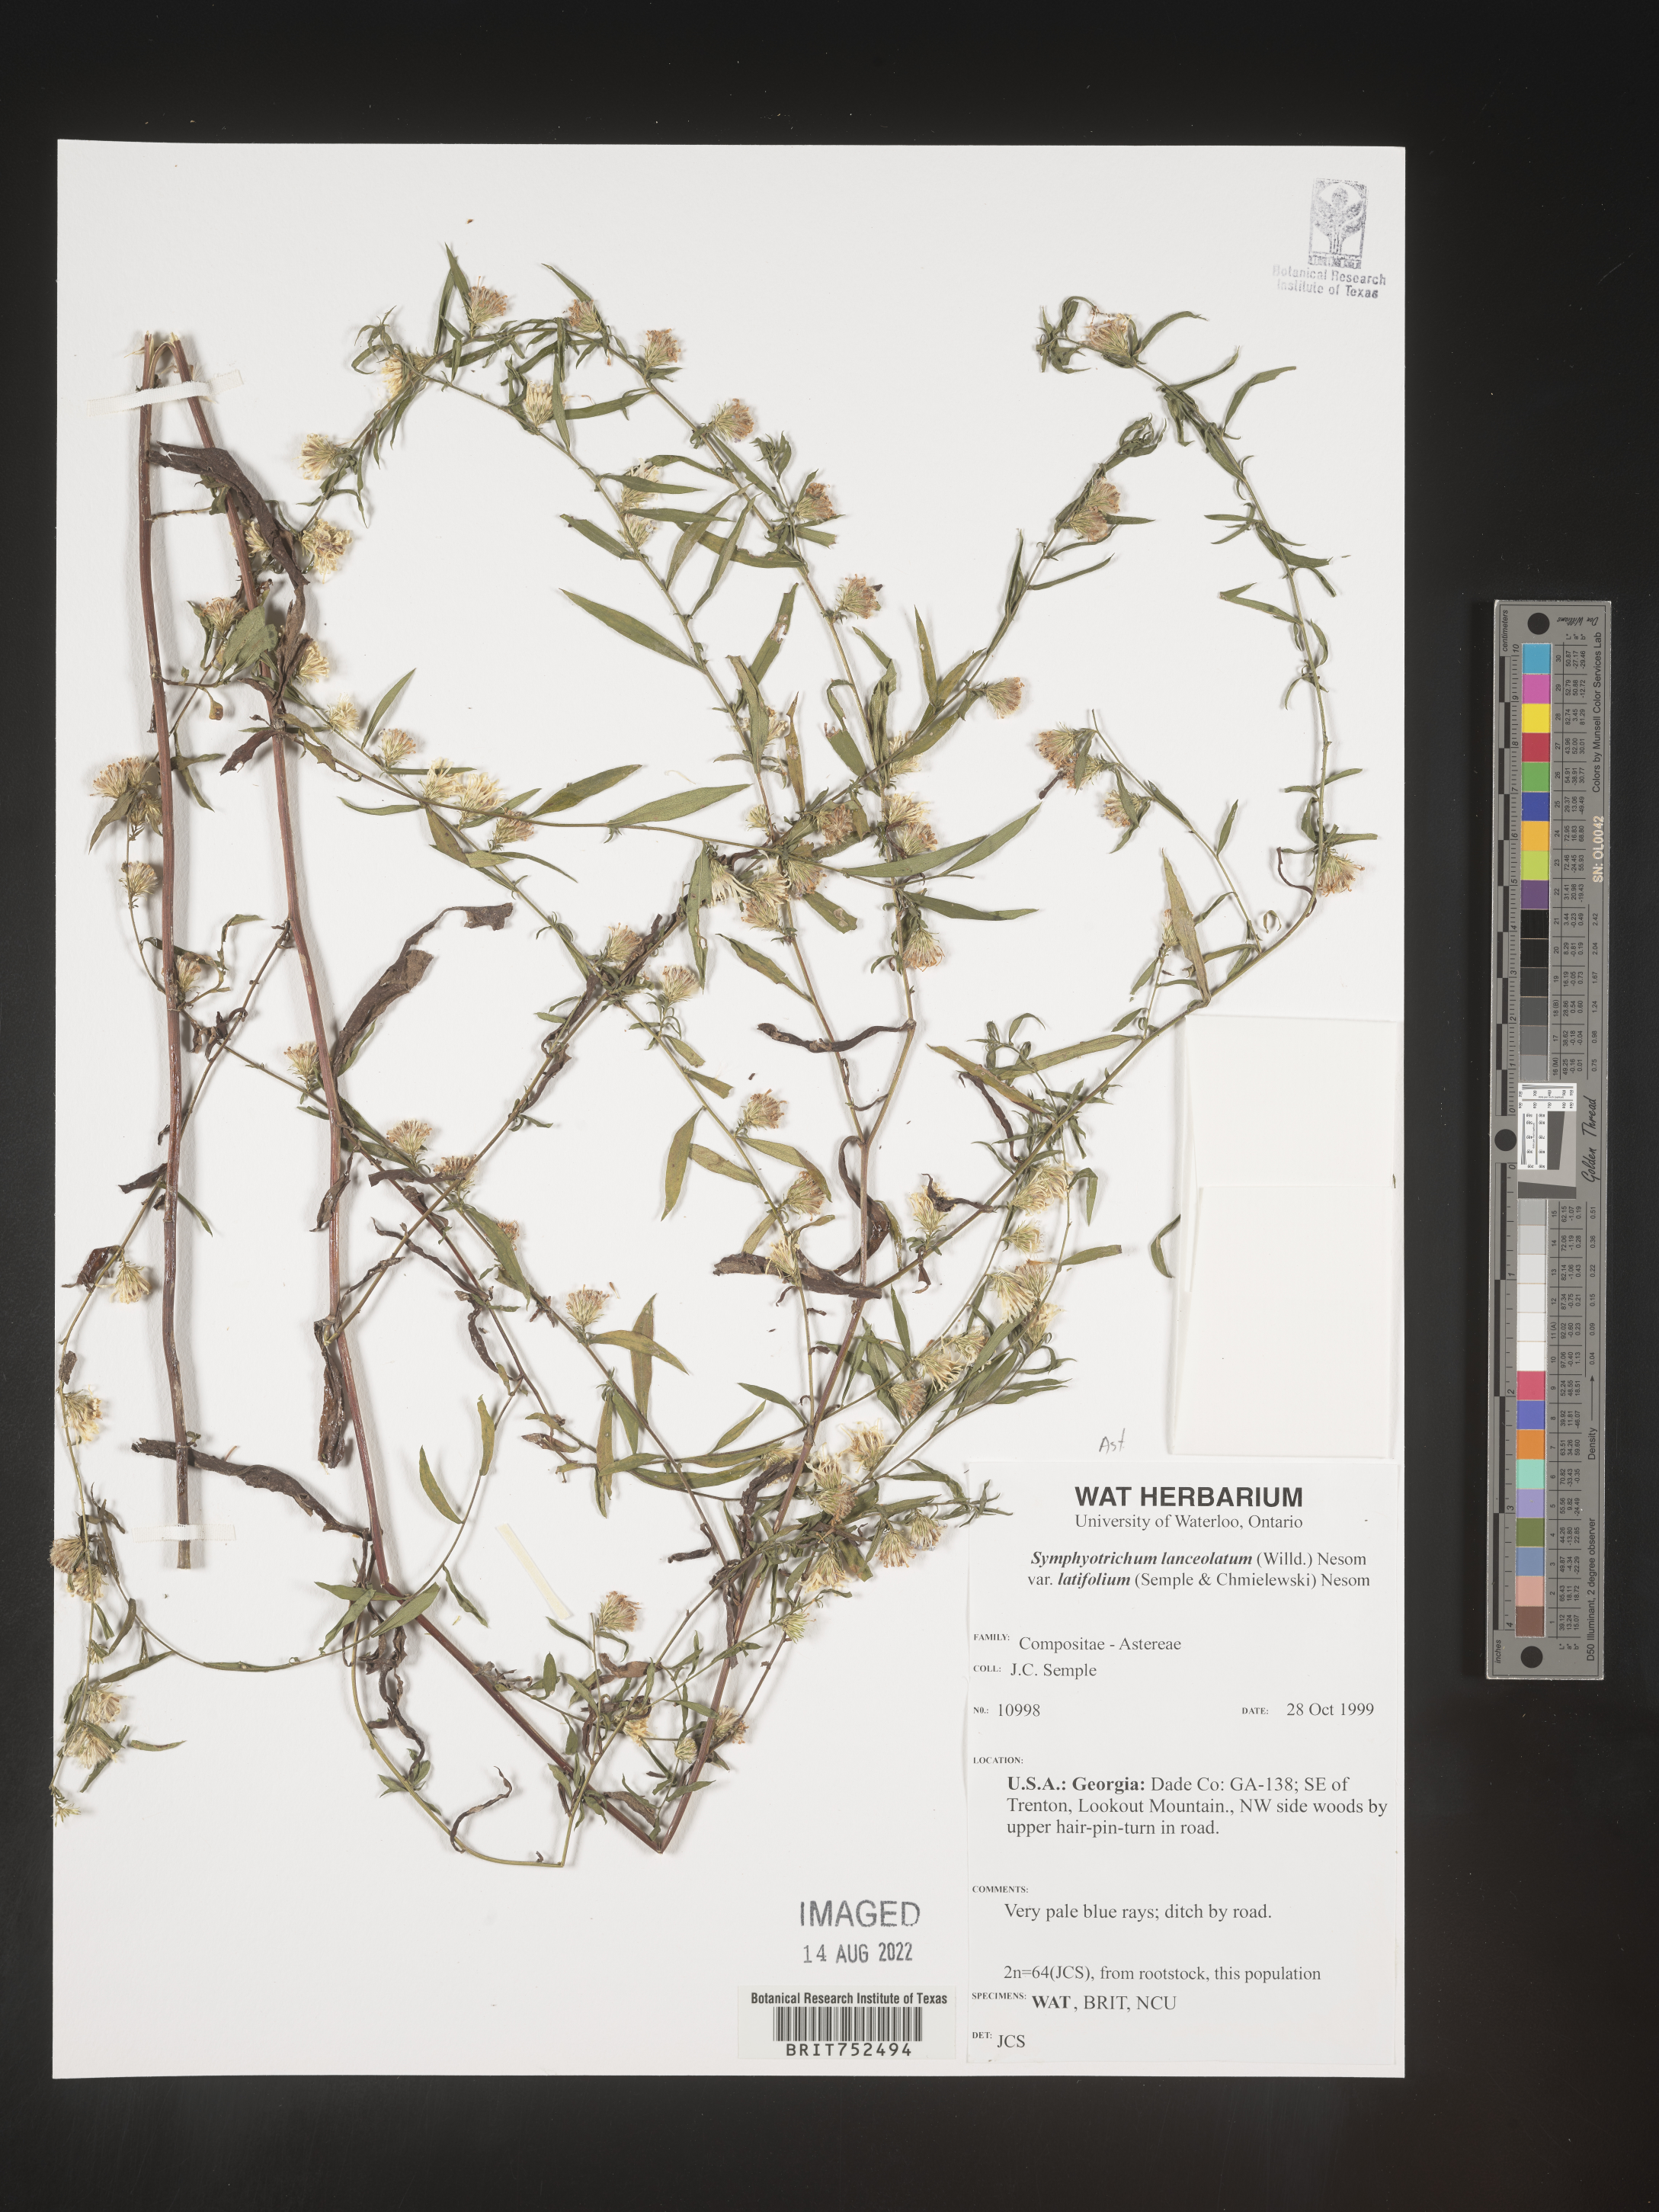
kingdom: Plantae
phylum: Tracheophyta
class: Magnoliopsida
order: Asterales
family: Asteraceae
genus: Symphyotrichum
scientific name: Symphyotrichum lanceolatum
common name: Panicled aster
